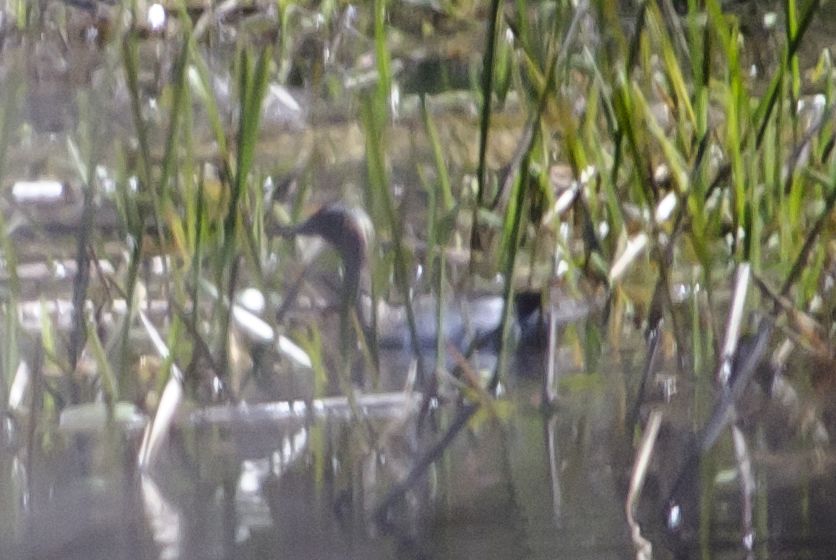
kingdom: Animalia
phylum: Chordata
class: Aves
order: Anseriformes
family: Anatidae
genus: Spatula
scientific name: Spatula querquedula
